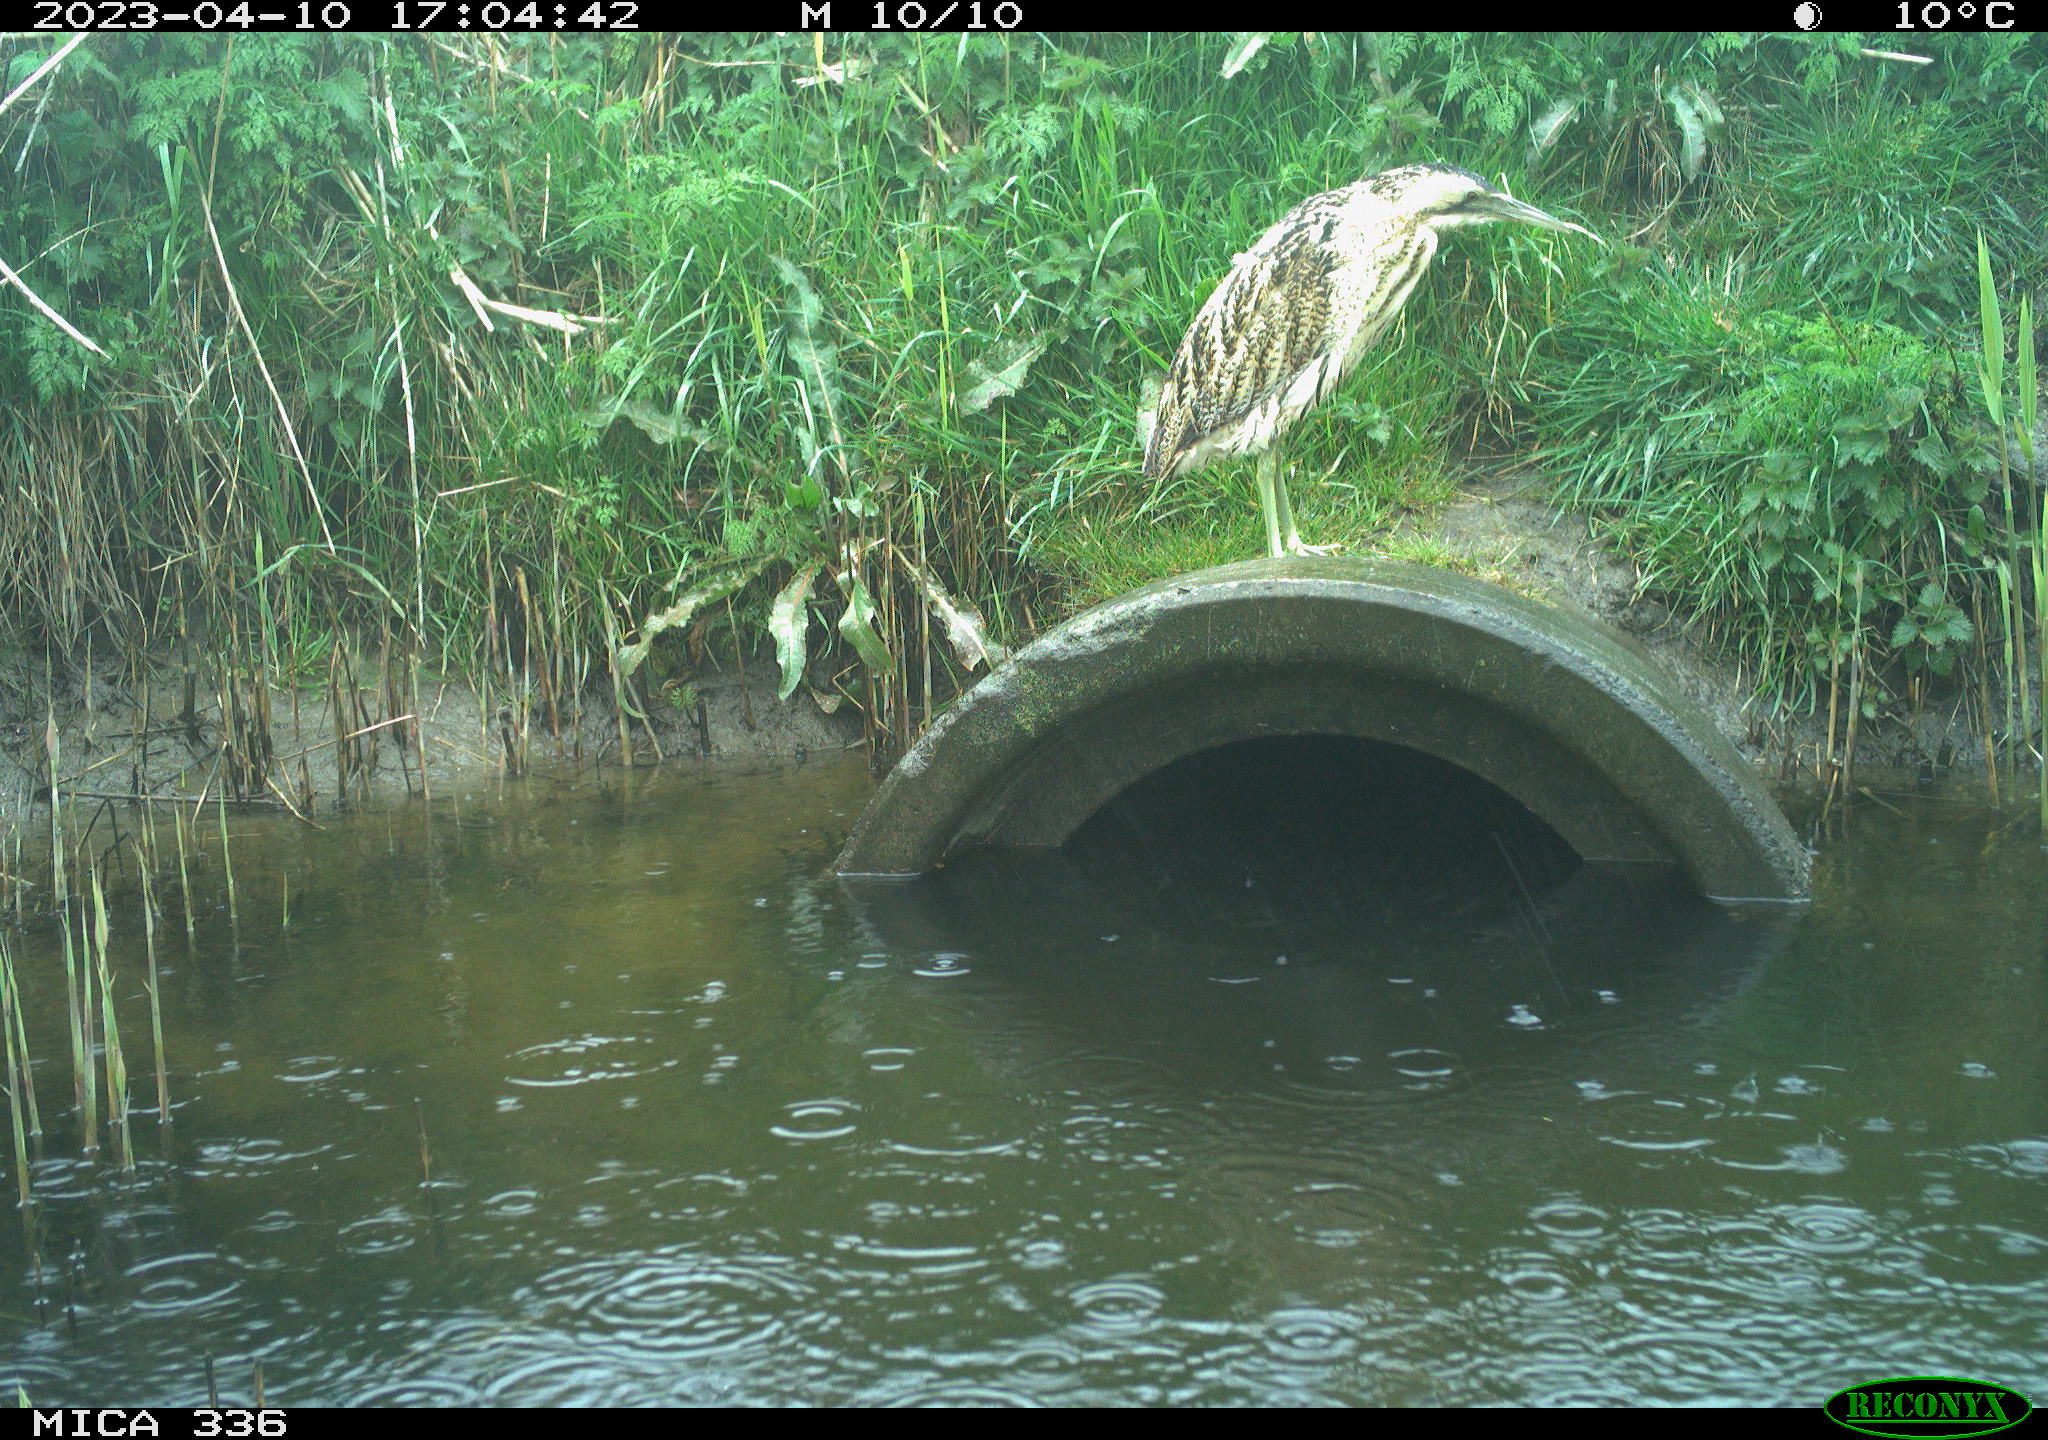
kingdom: Animalia
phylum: Chordata
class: Aves
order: Pelecaniformes
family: Ardeidae
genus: Botaurus
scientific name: Botaurus
